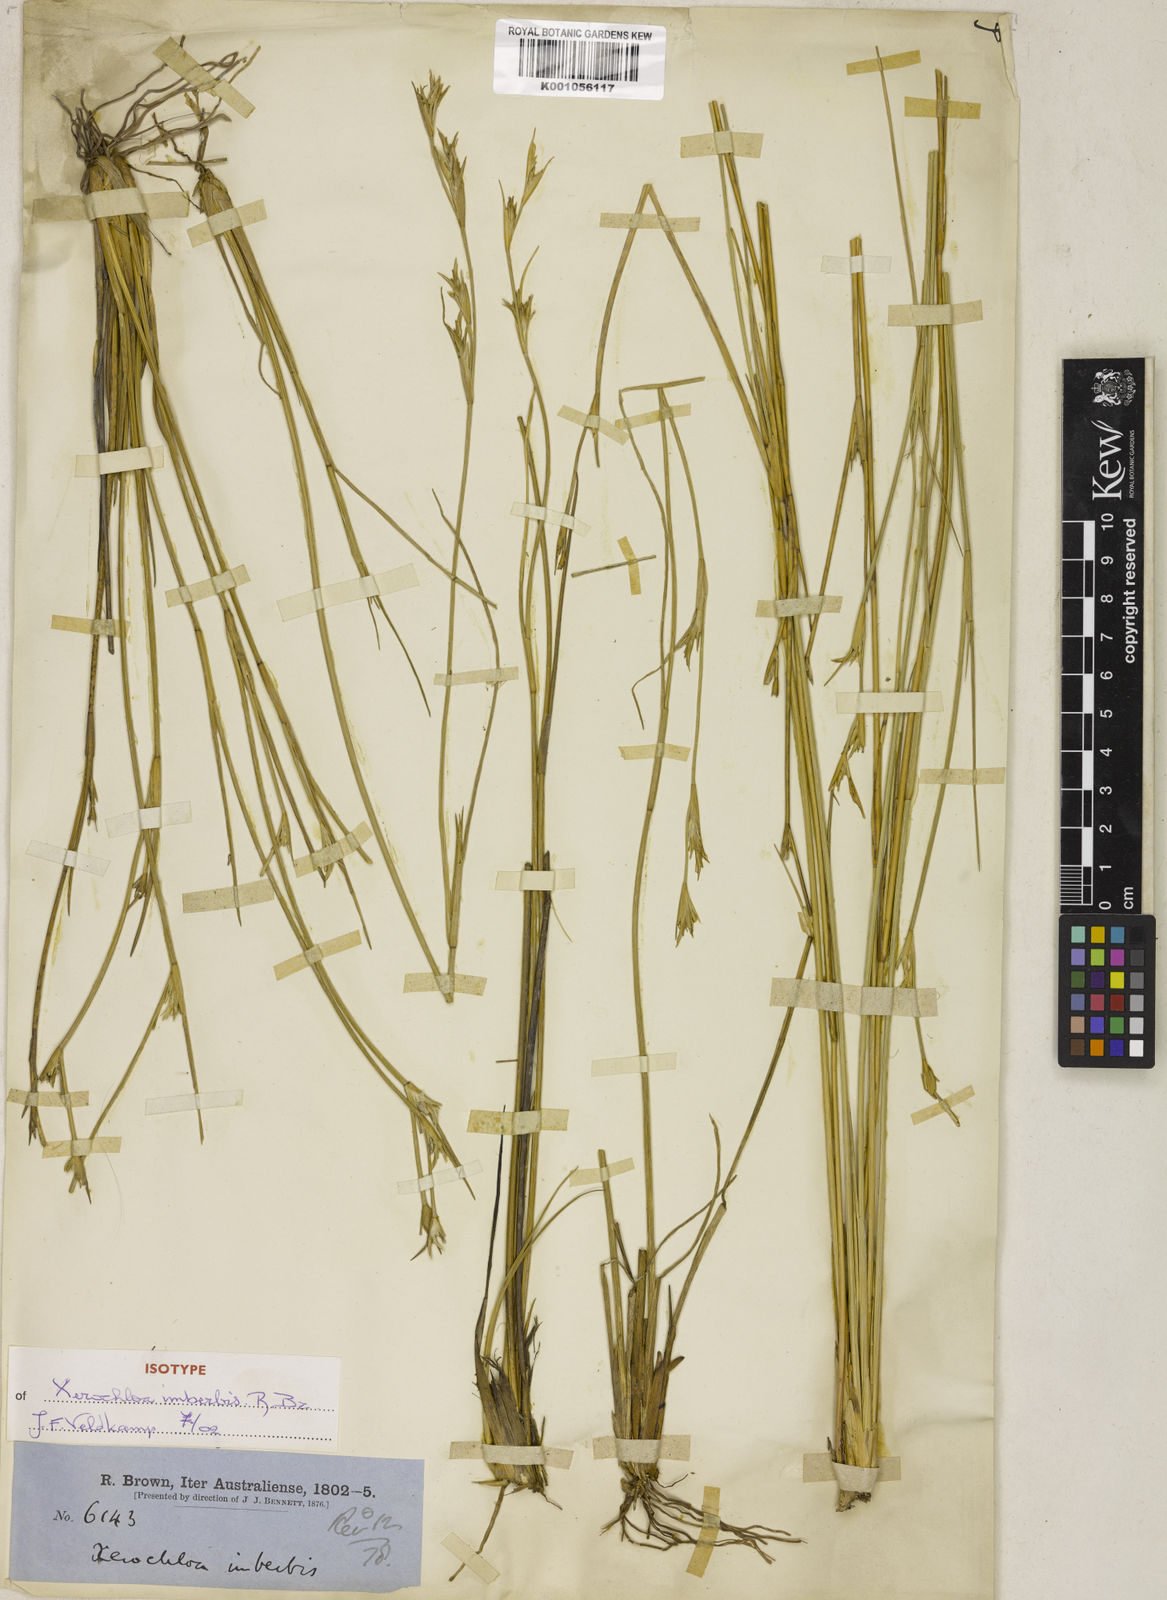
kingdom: Plantae
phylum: Tracheophyta
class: Liliopsida
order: Poales
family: Poaceae
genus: Xerochloa
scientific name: Xerochloa imberbis
